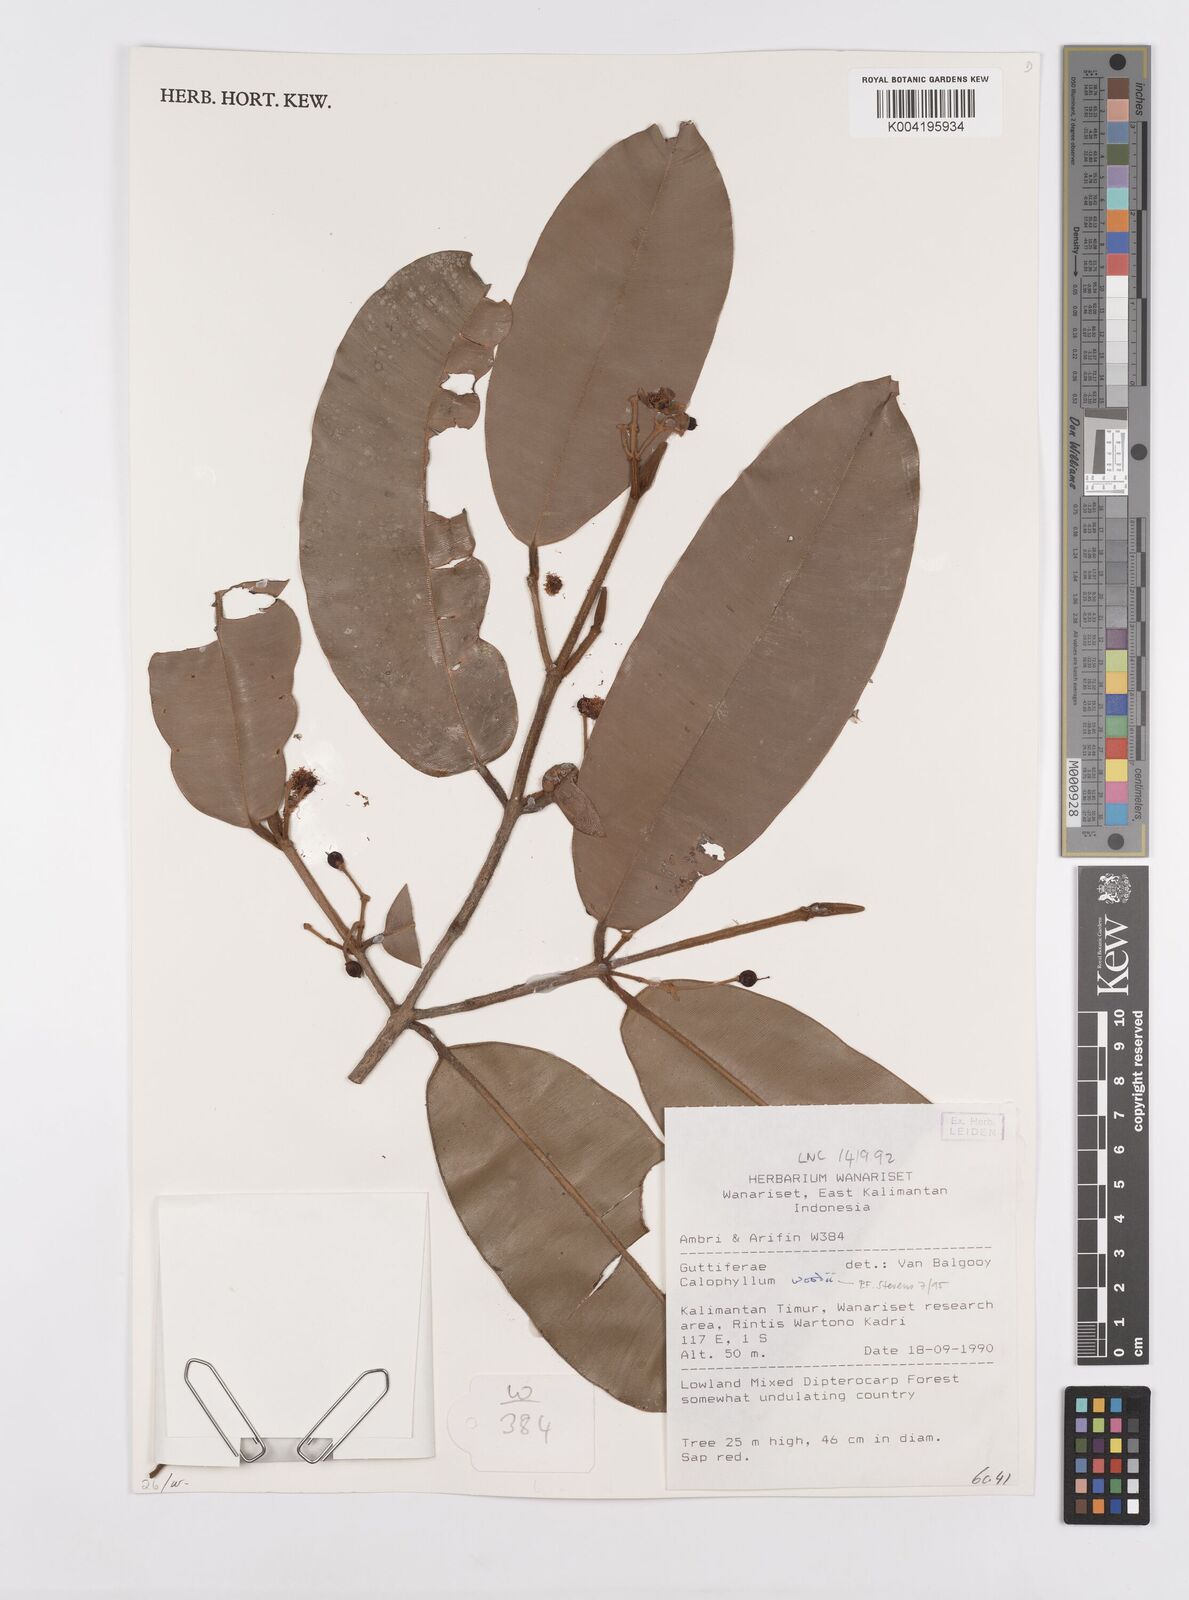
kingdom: Plantae
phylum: Tracheophyta
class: Magnoliopsida
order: Malpighiales
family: Calophyllaceae
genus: Calophyllum
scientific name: Calophyllum woodii
